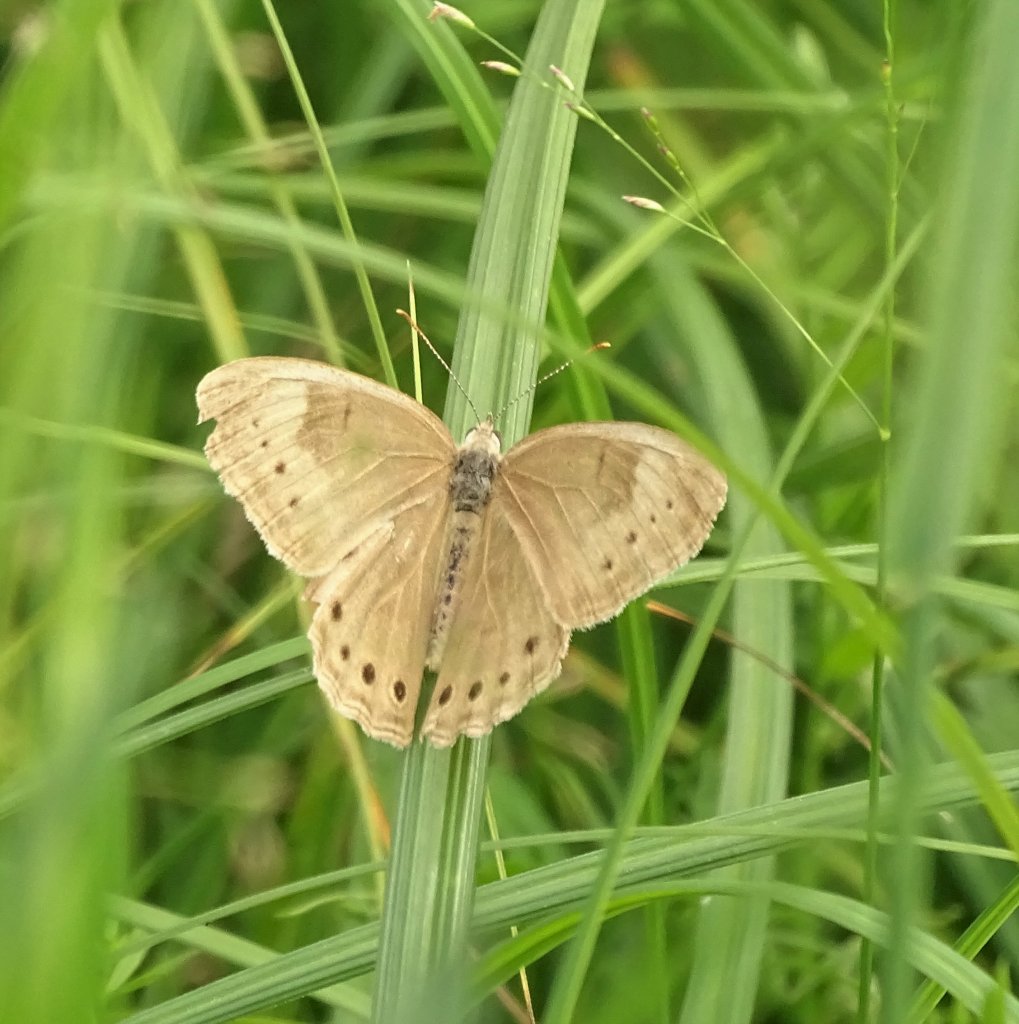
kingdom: Animalia
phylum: Arthropoda
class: Insecta
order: Lepidoptera
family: Nymphalidae
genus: Lethe
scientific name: Lethe eurydice
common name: Eyed Brown
